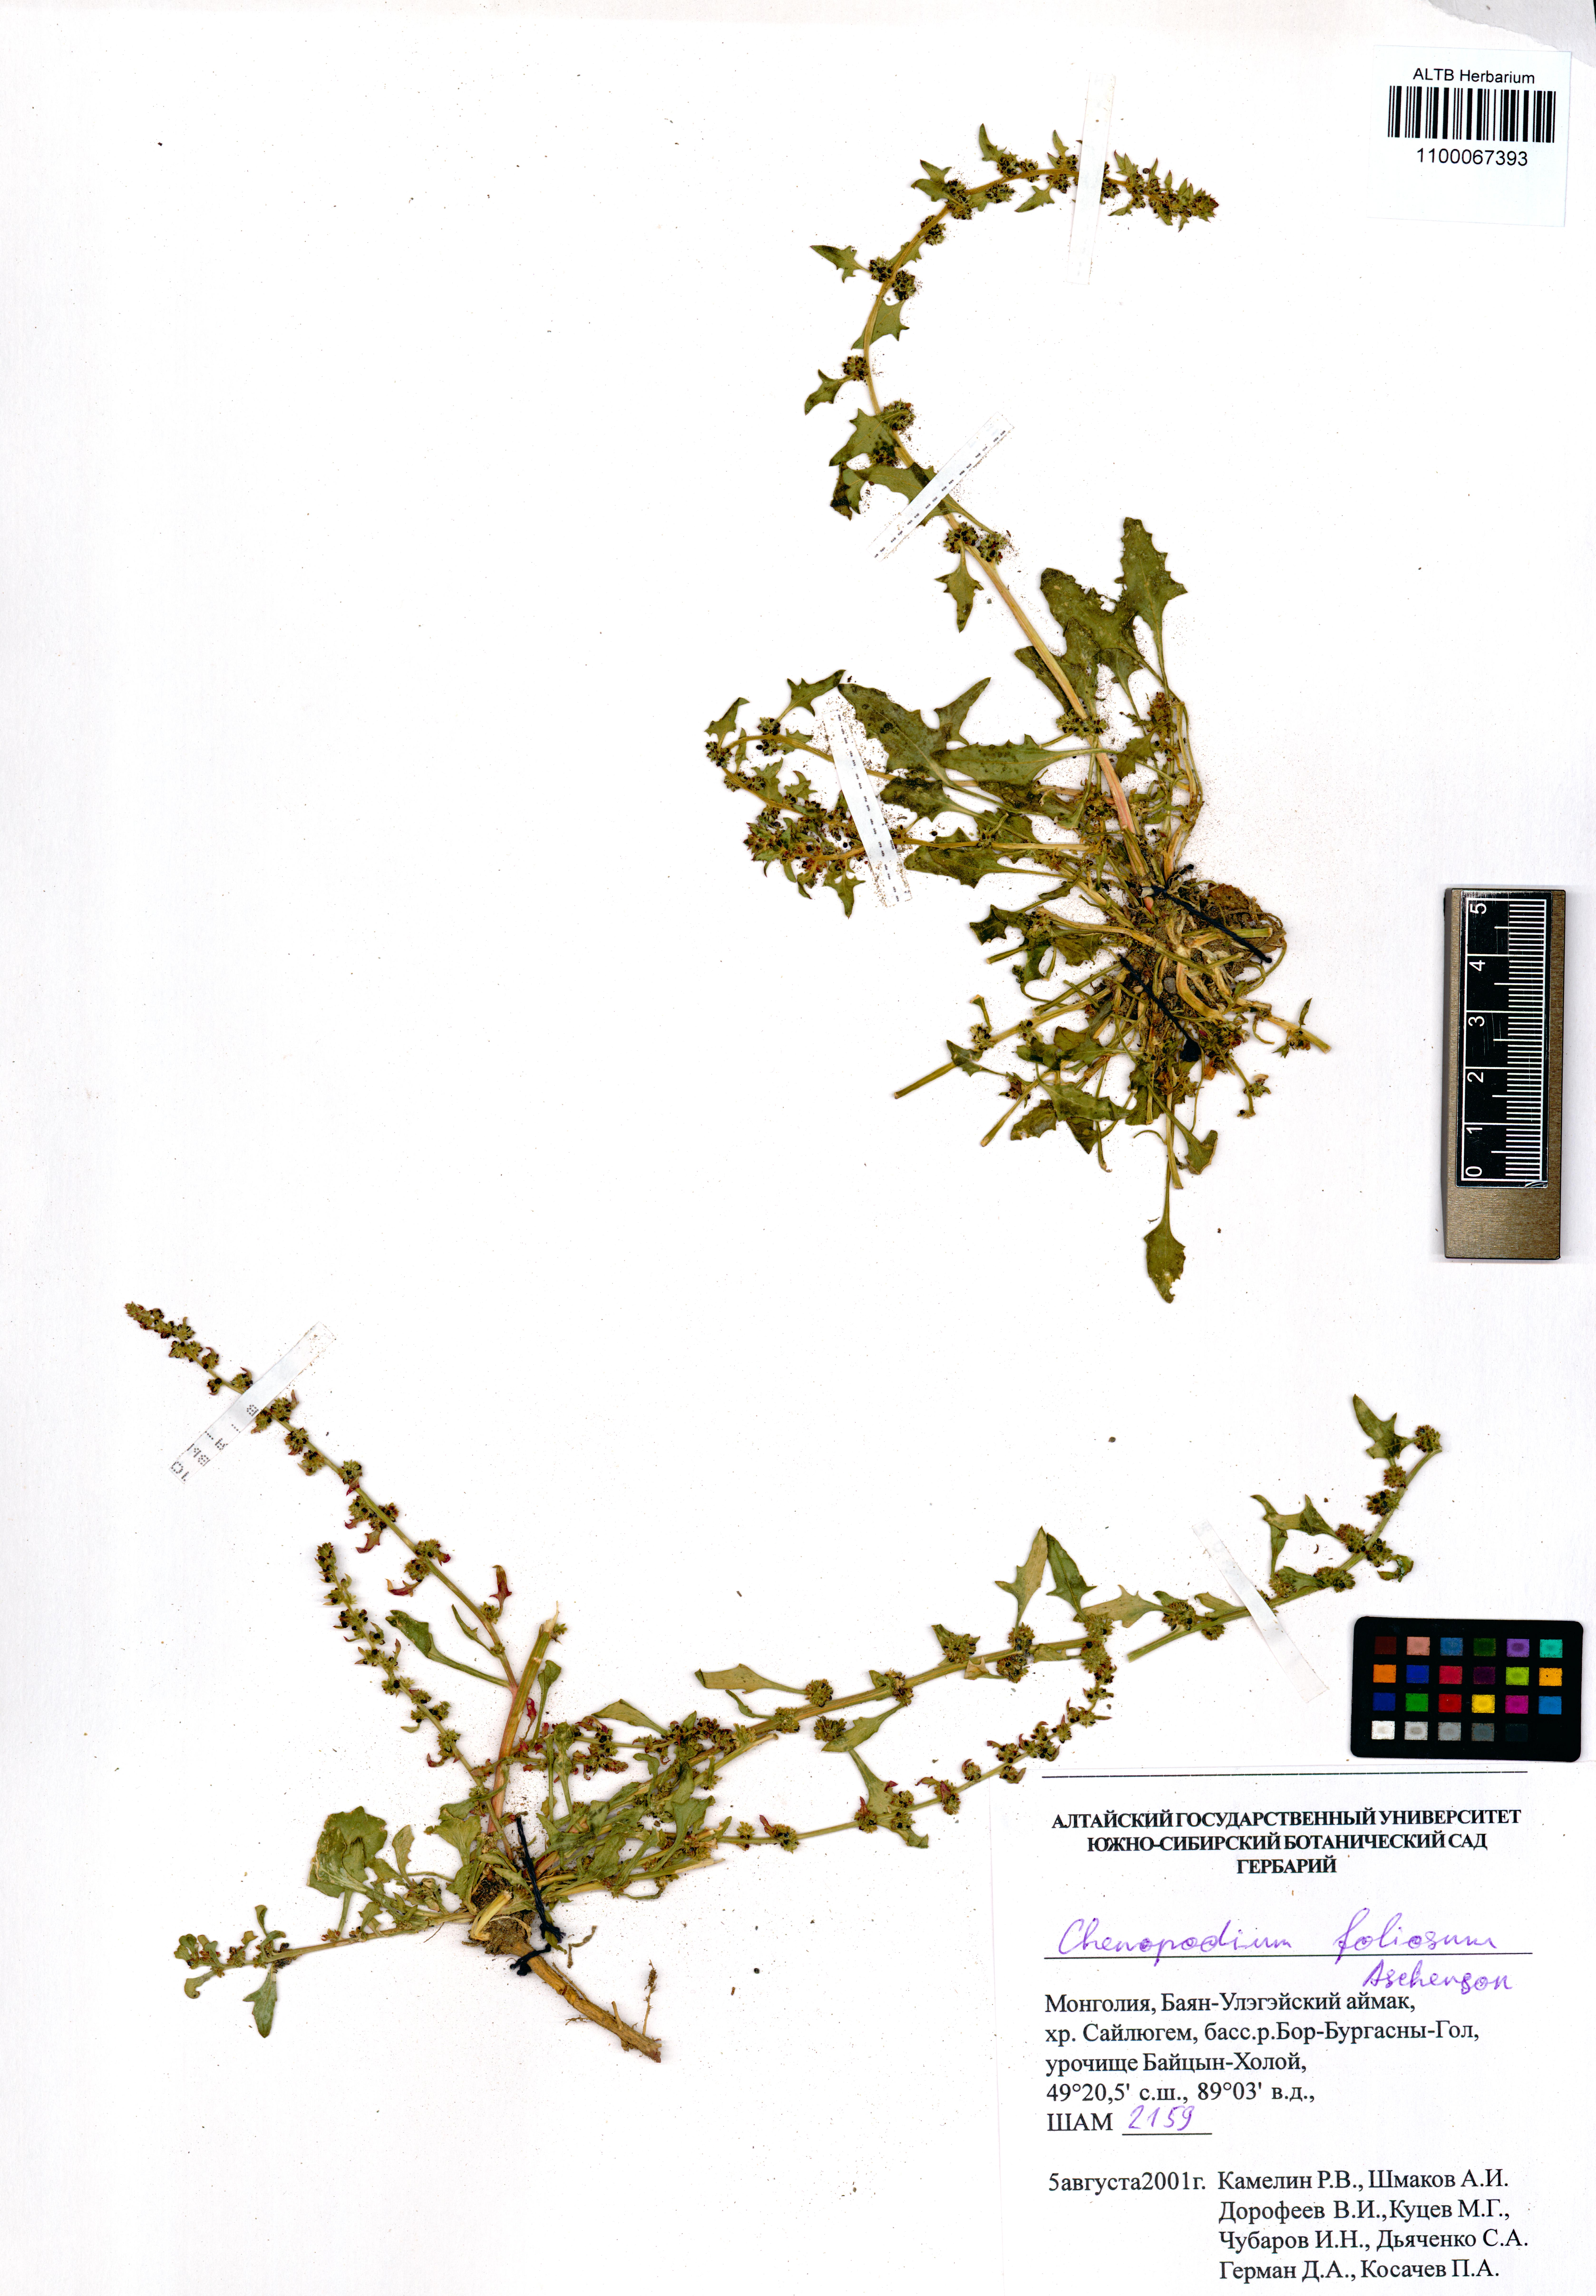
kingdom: Plantae
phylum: Tracheophyta
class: Magnoliopsida
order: Caryophyllales
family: Amaranthaceae
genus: Blitum
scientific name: Blitum virgatum
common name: Strawberry goosefoot
